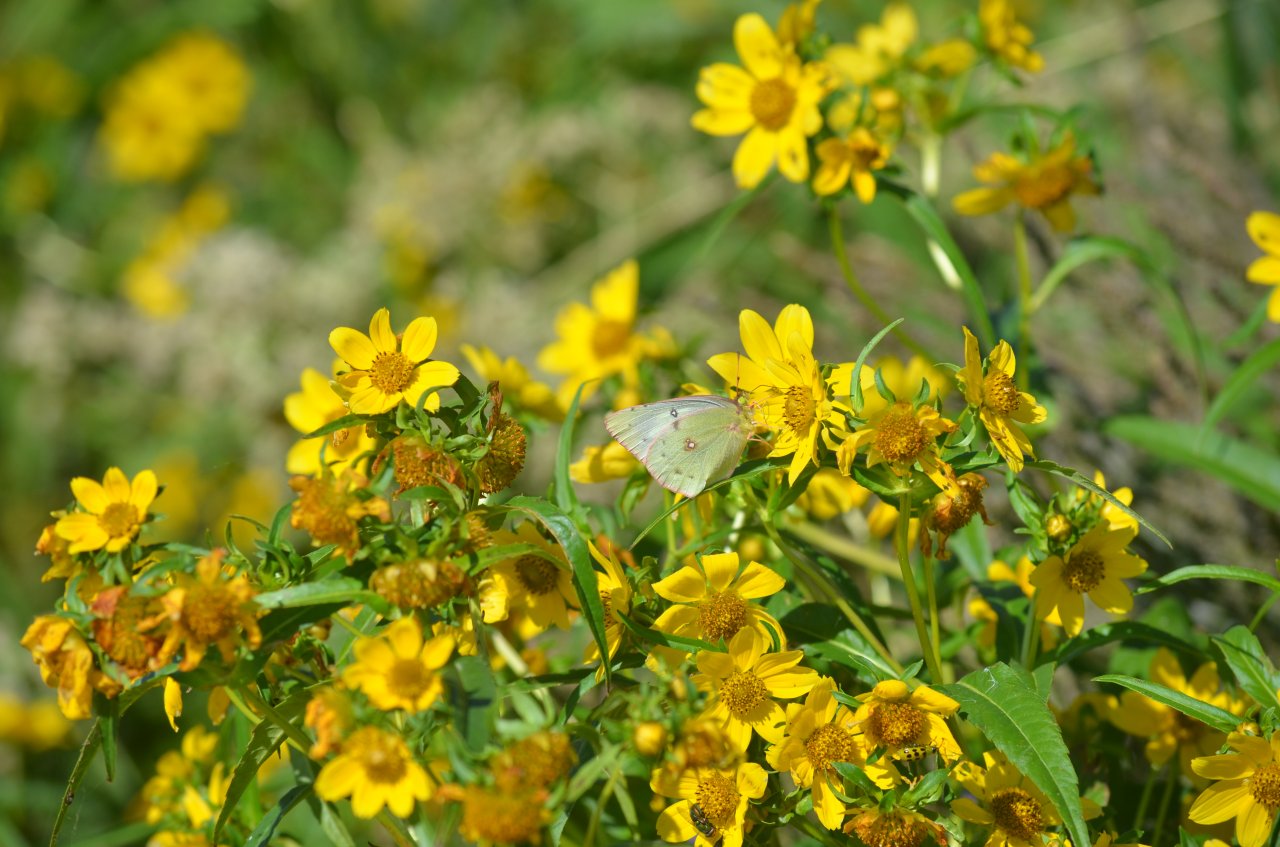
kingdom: Animalia
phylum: Arthropoda
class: Insecta
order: Lepidoptera
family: Pieridae
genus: Colias
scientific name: Colias philodice
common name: Clouded Sulphur
